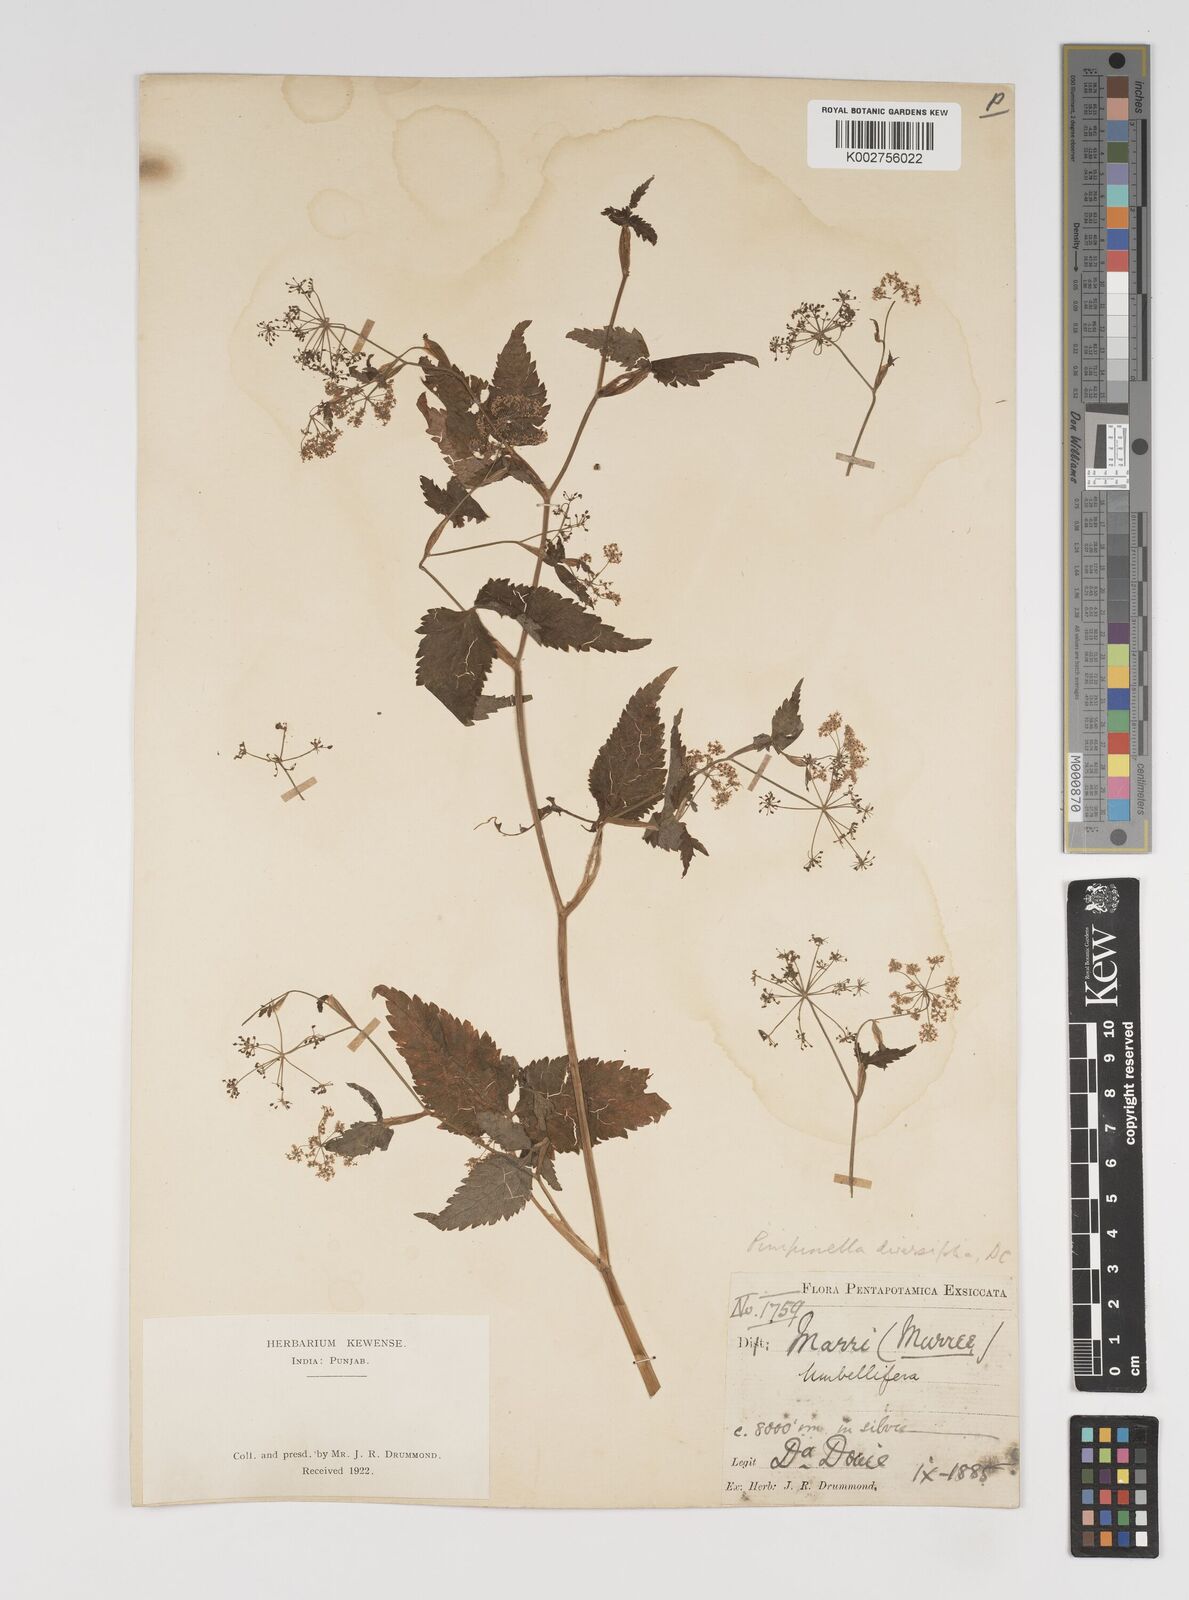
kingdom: Plantae
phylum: Tracheophyta
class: Magnoliopsida
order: Apiales
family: Apiaceae
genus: Pimpinella
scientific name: Pimpinella diversifolia
